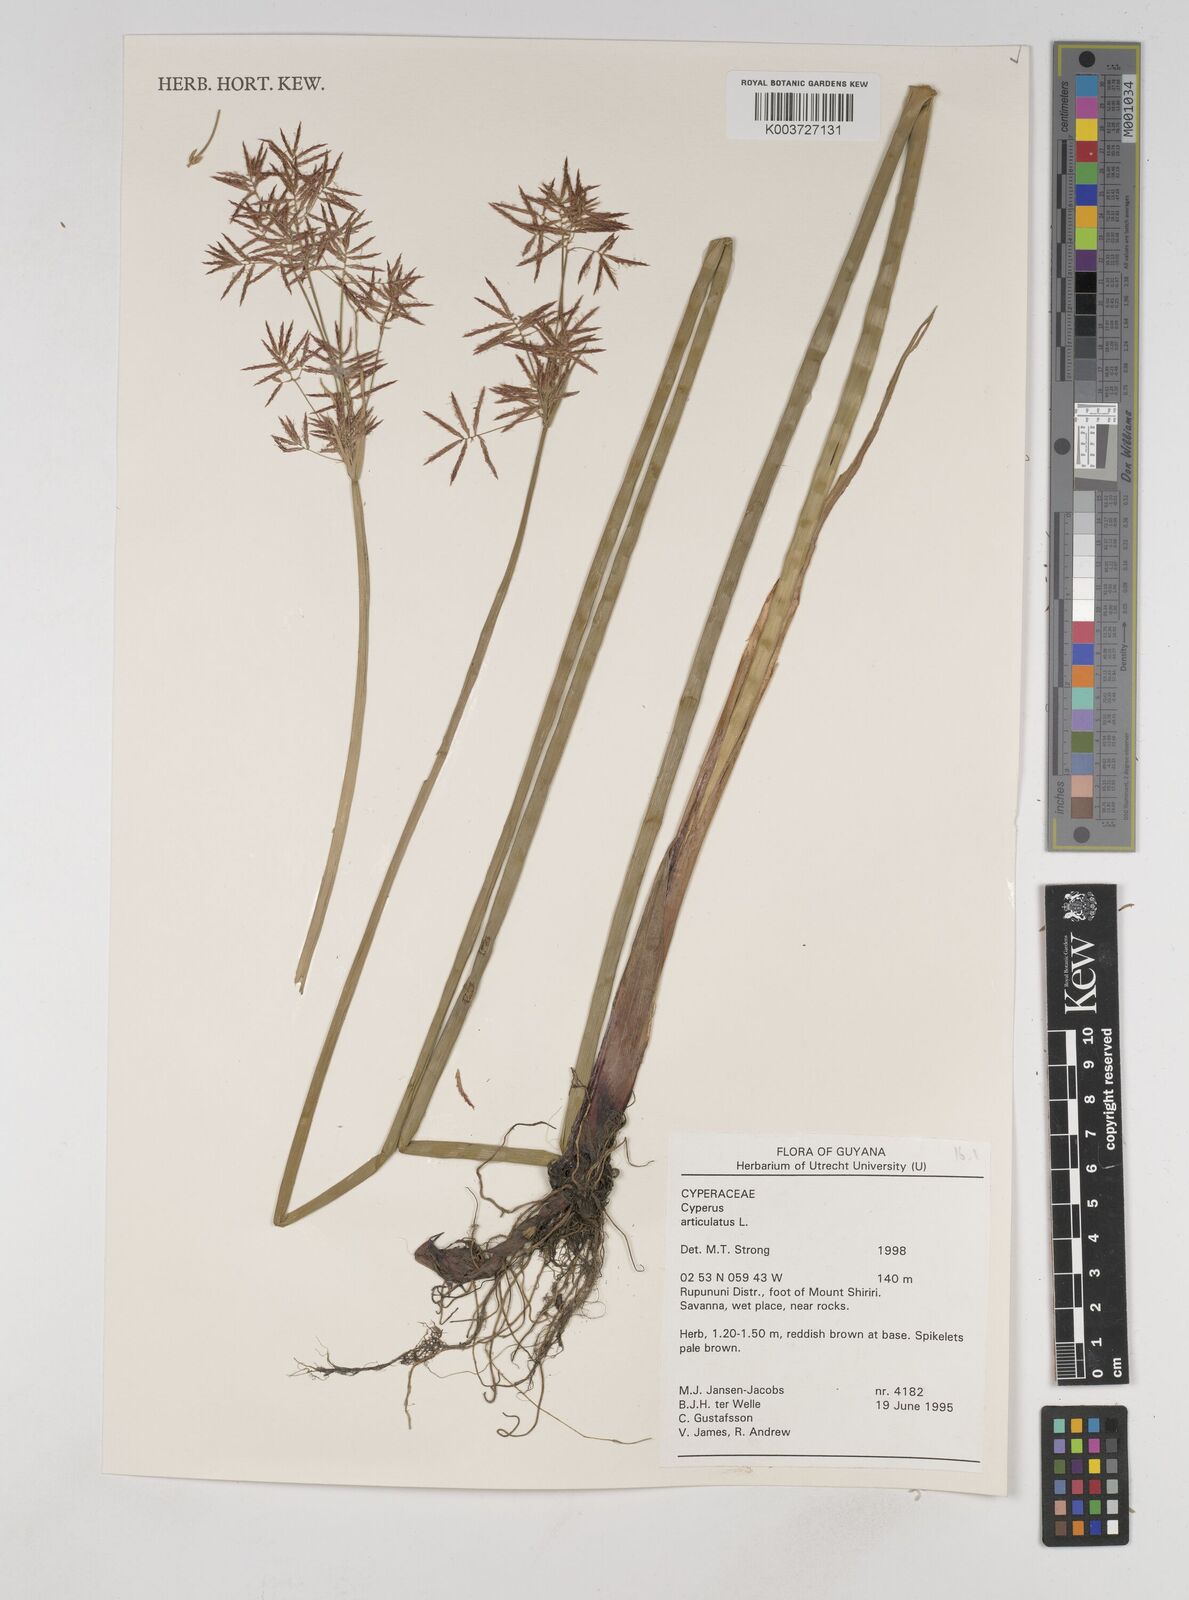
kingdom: Plantae
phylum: Tracheophyta
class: Liliopsida
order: Poales
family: Cyperaceae
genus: Cyperus
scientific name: Cyperus articulatus
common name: Jointed flatsedge
